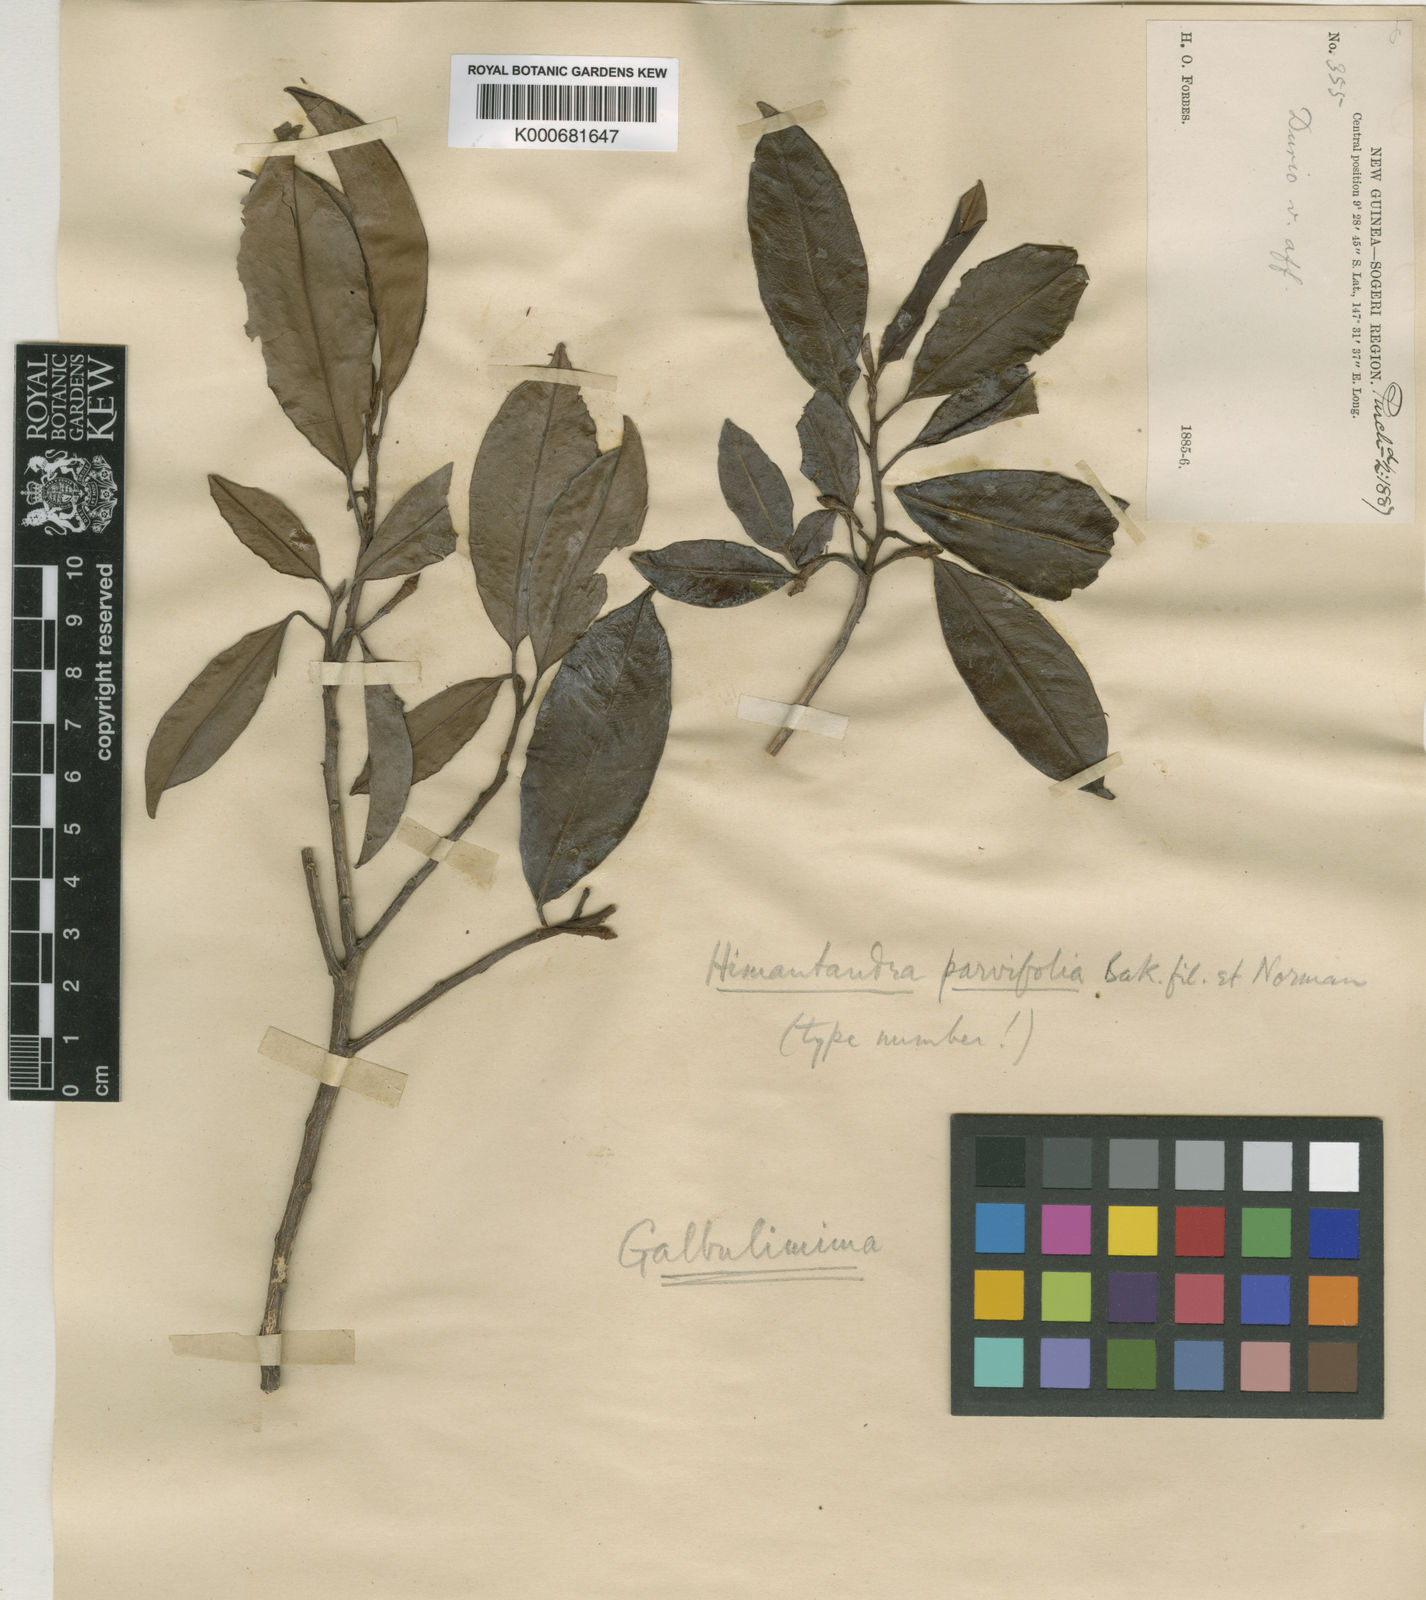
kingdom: Plantae
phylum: Tracheophyta
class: Magnoliopsida
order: Magnoliales
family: Himantandraceae
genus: Galbulimima
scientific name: Galbulimima belgraveana
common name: Northern pigeonberry-ash
